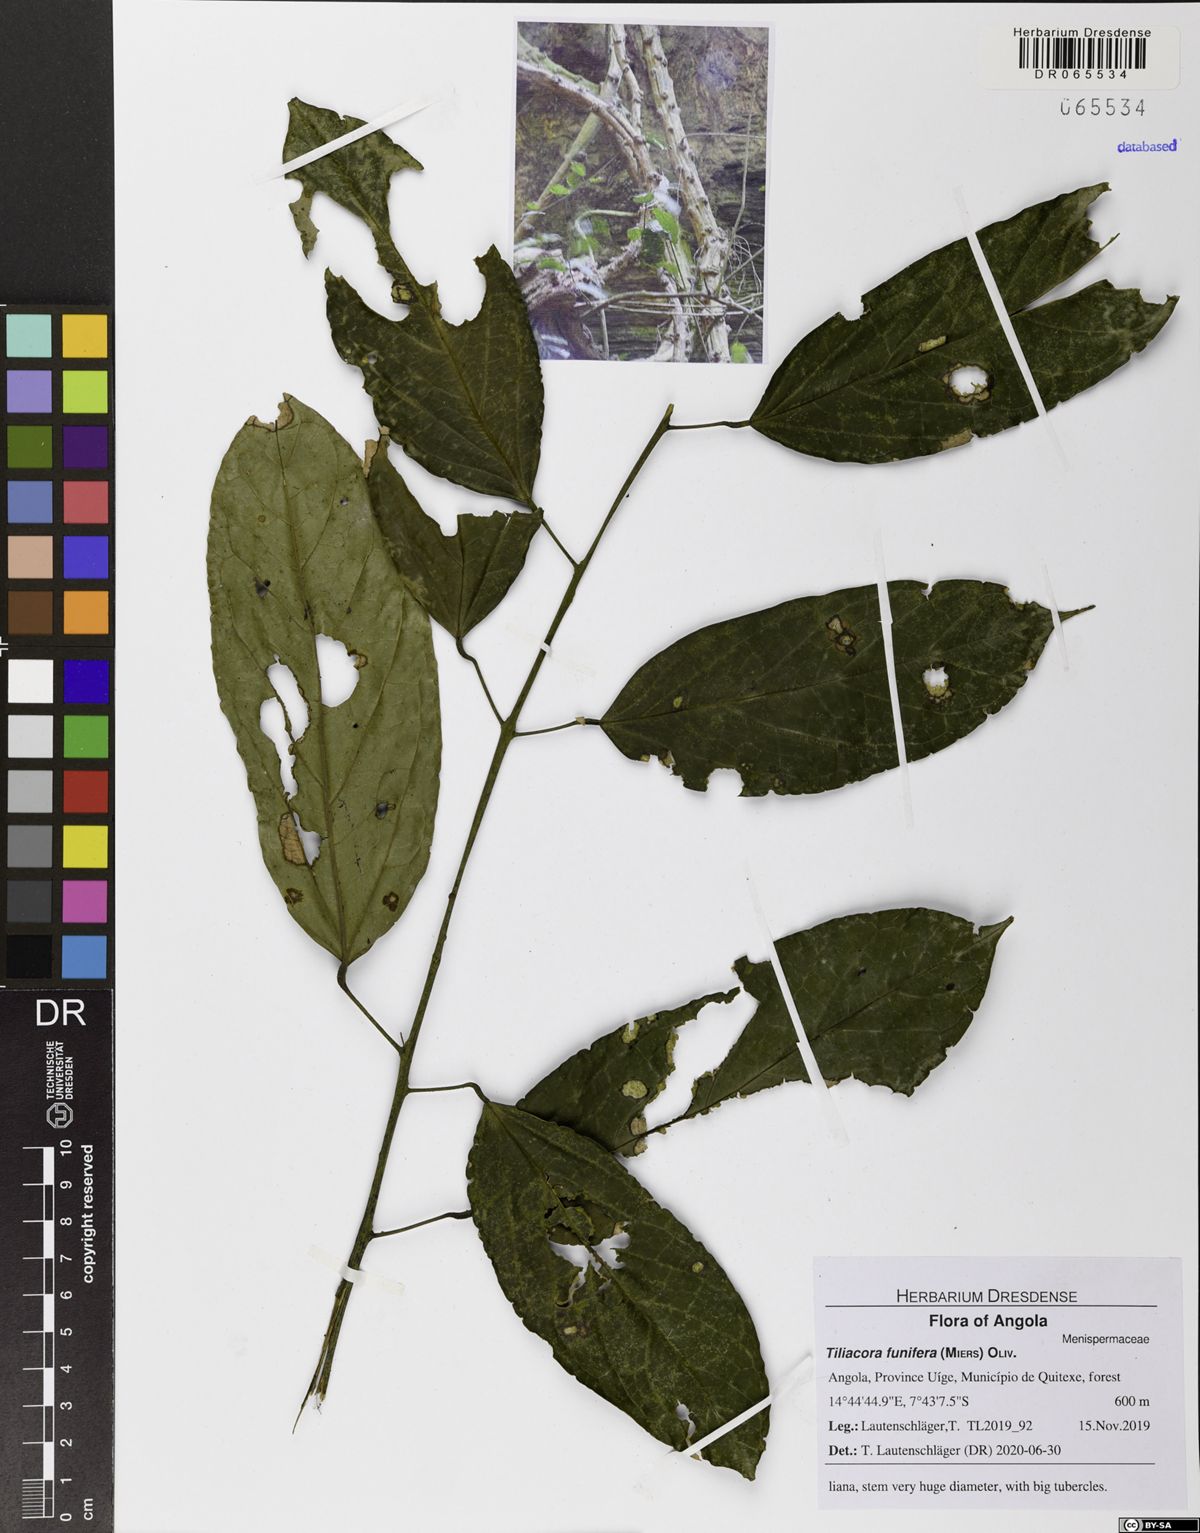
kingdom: Plantae
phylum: Tracheophyta
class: Magnoliopsida
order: Ranunculales
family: Menispermaceae
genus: Tiliacora
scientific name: Tiliacora funifera
